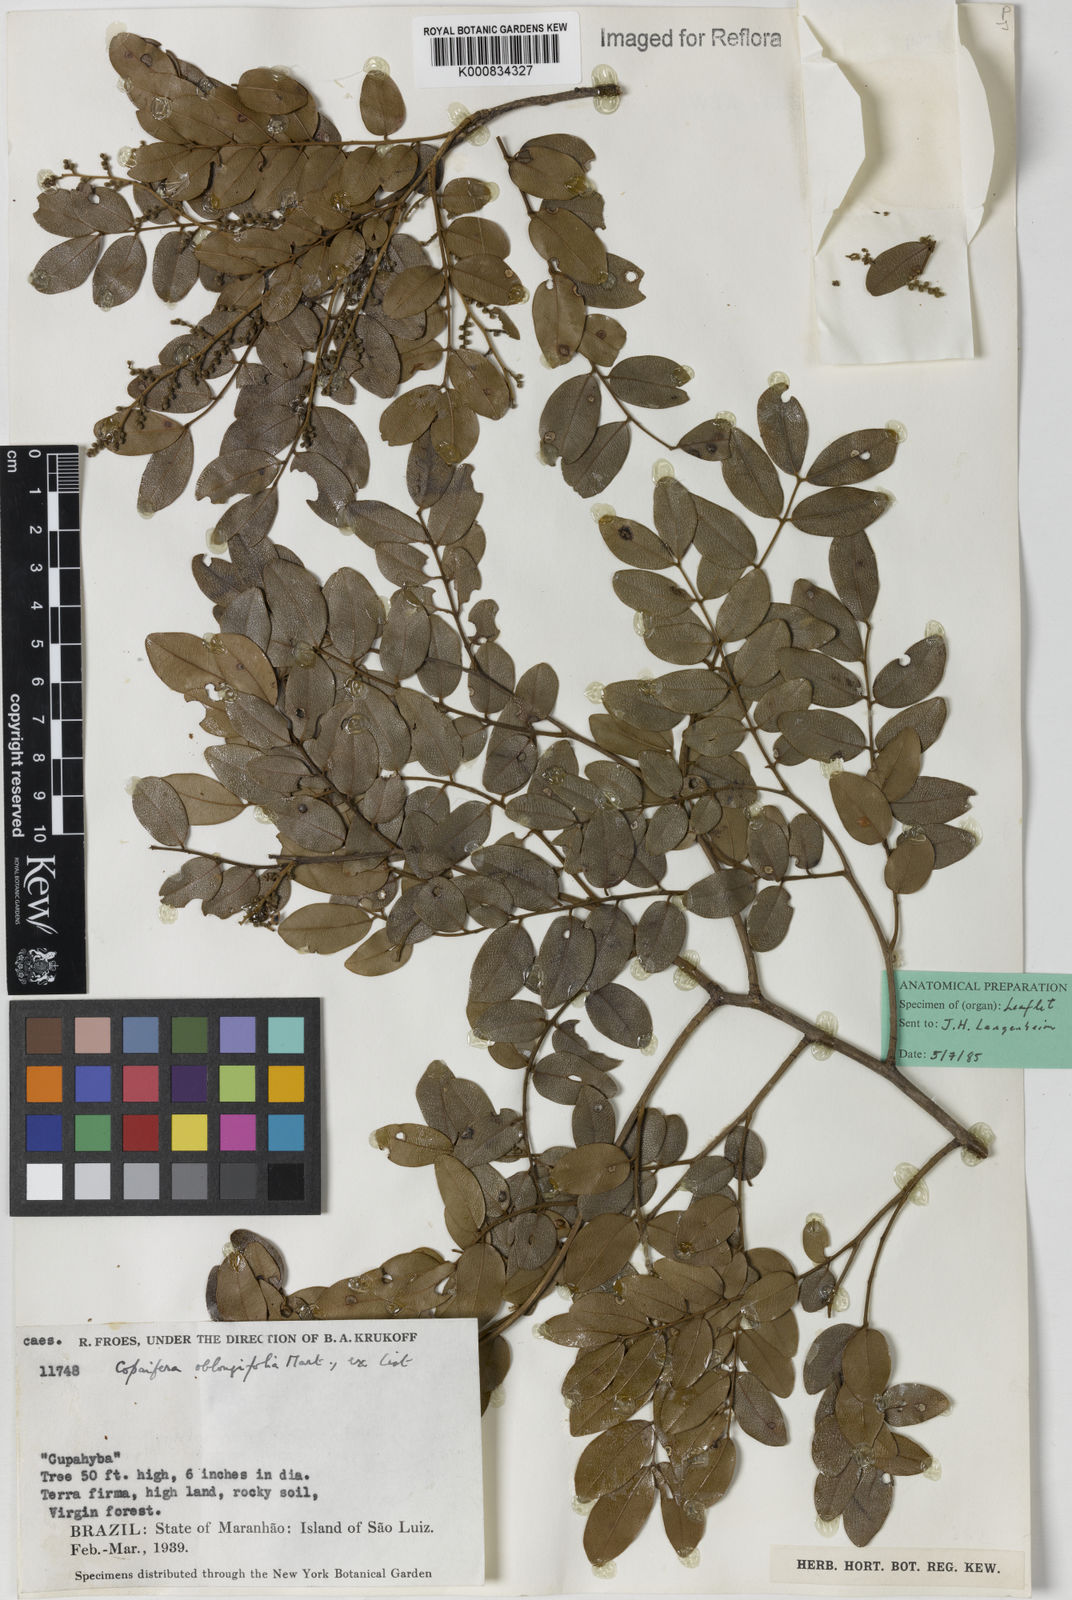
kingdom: Plantae
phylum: Tracheophyta
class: Magnoliopsida
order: Fabales
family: Fabaceae
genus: Copaifera
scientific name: Copaifera
